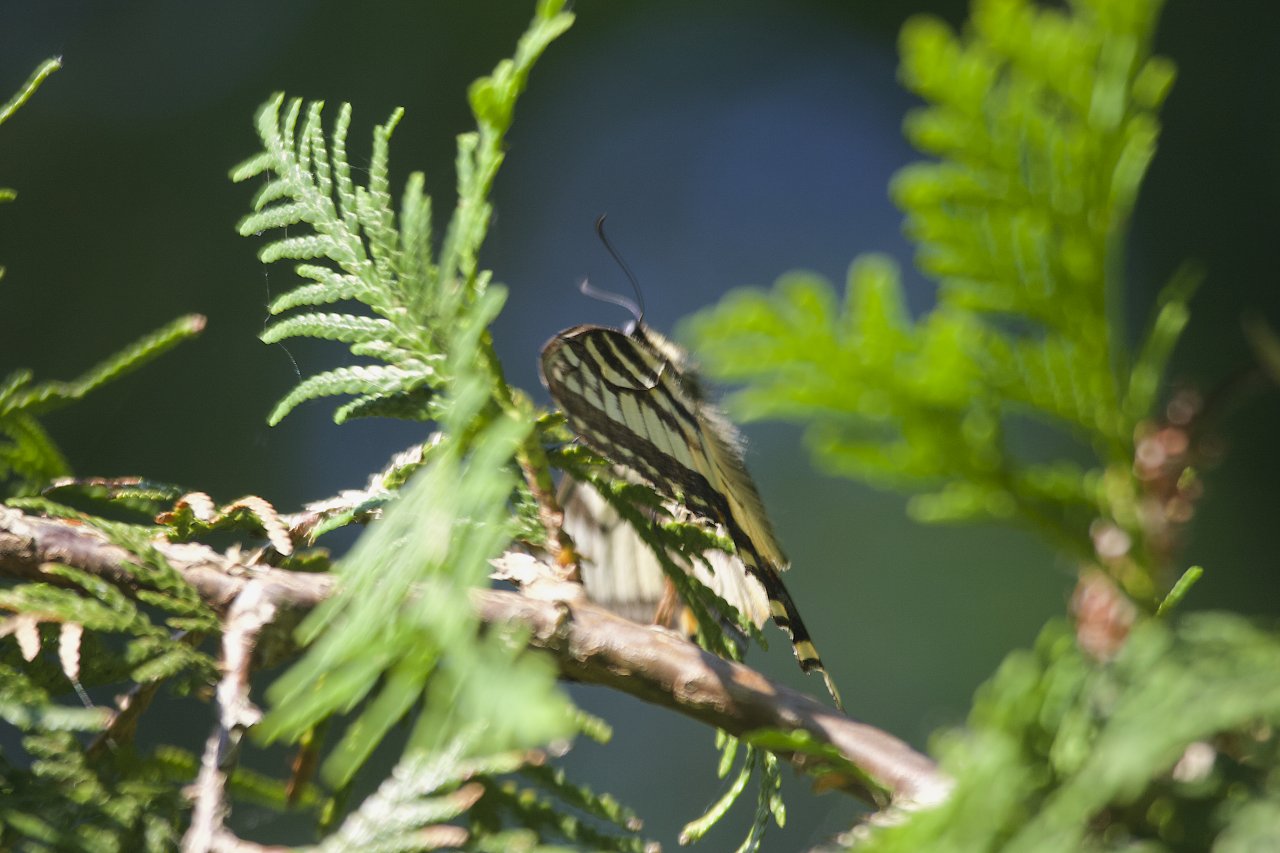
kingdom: Animalia
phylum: Arthropoda
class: Insecta
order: Lepidoptera
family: Papilionidae
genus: Pterourus
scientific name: Pterourus glaucus
